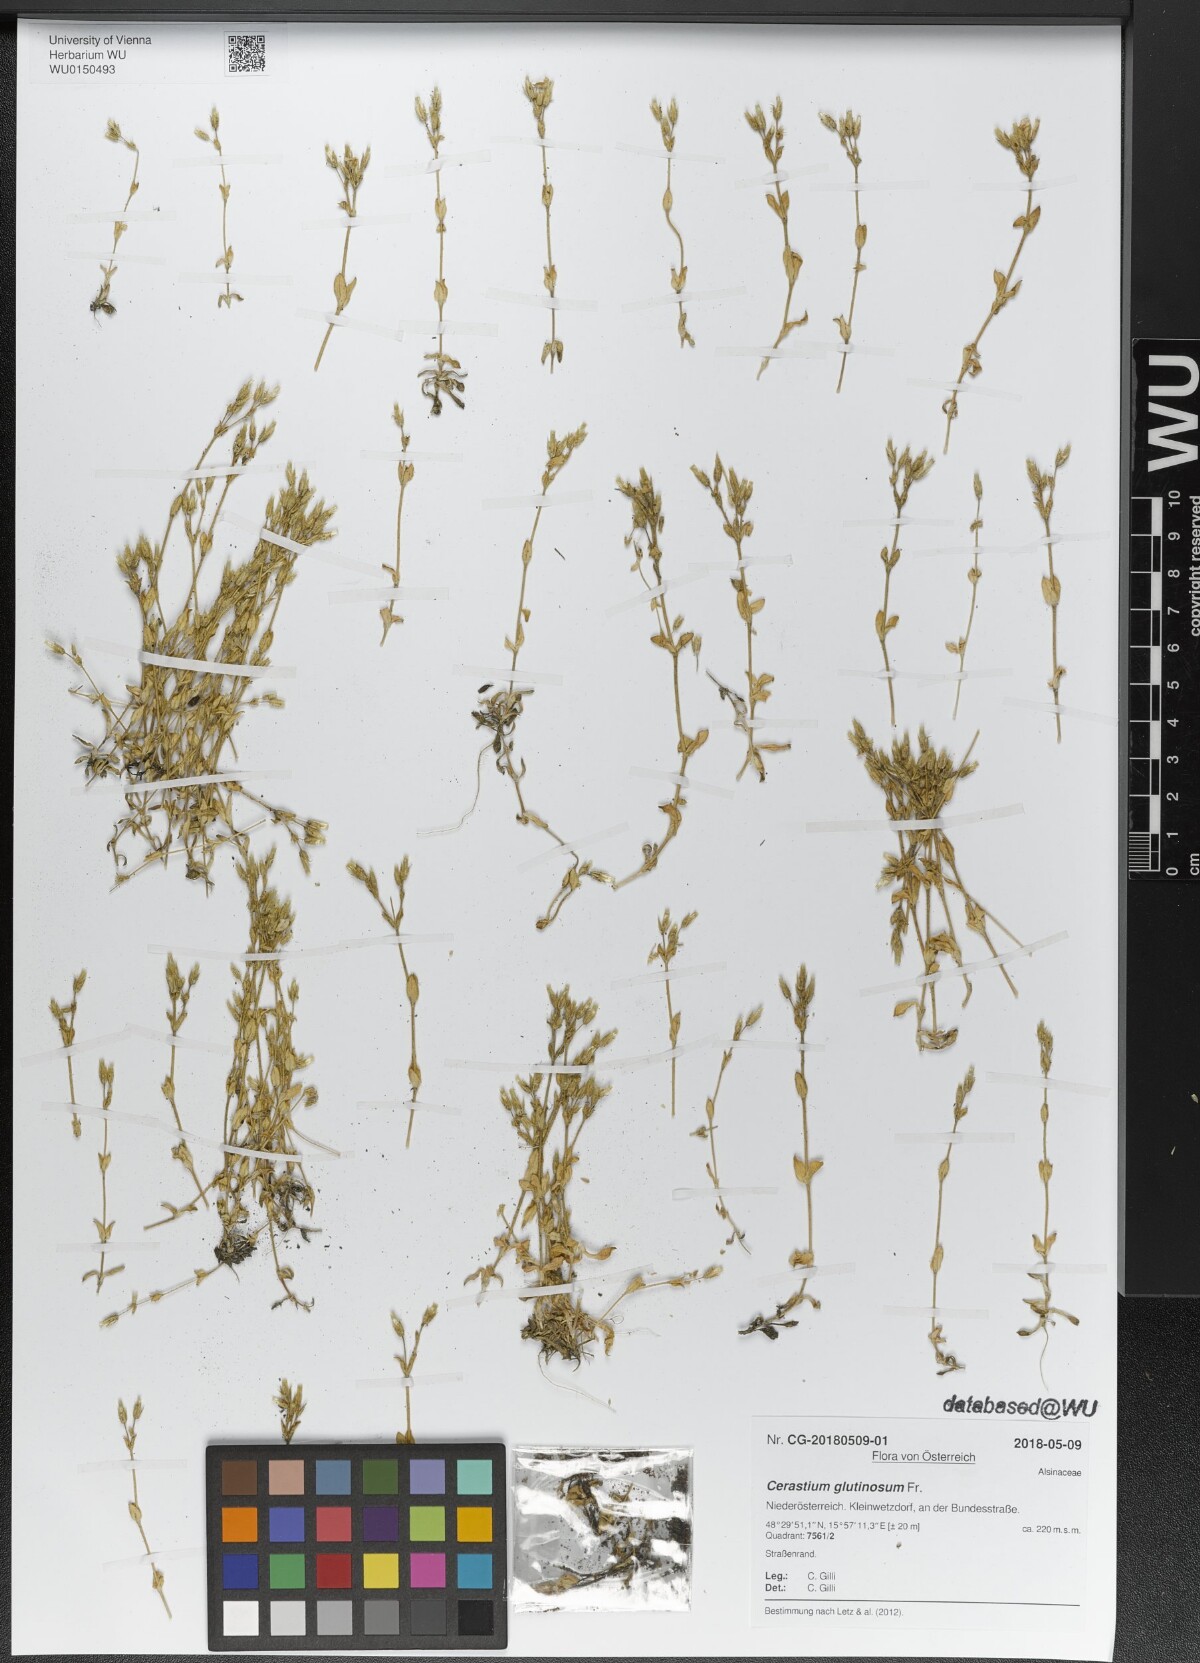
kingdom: Plantae
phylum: Tracheophyta
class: Magnoliopsida
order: Caryophyllales
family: Caryophyllaceae
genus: Cerastium
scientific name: Cerastium glutinosum
